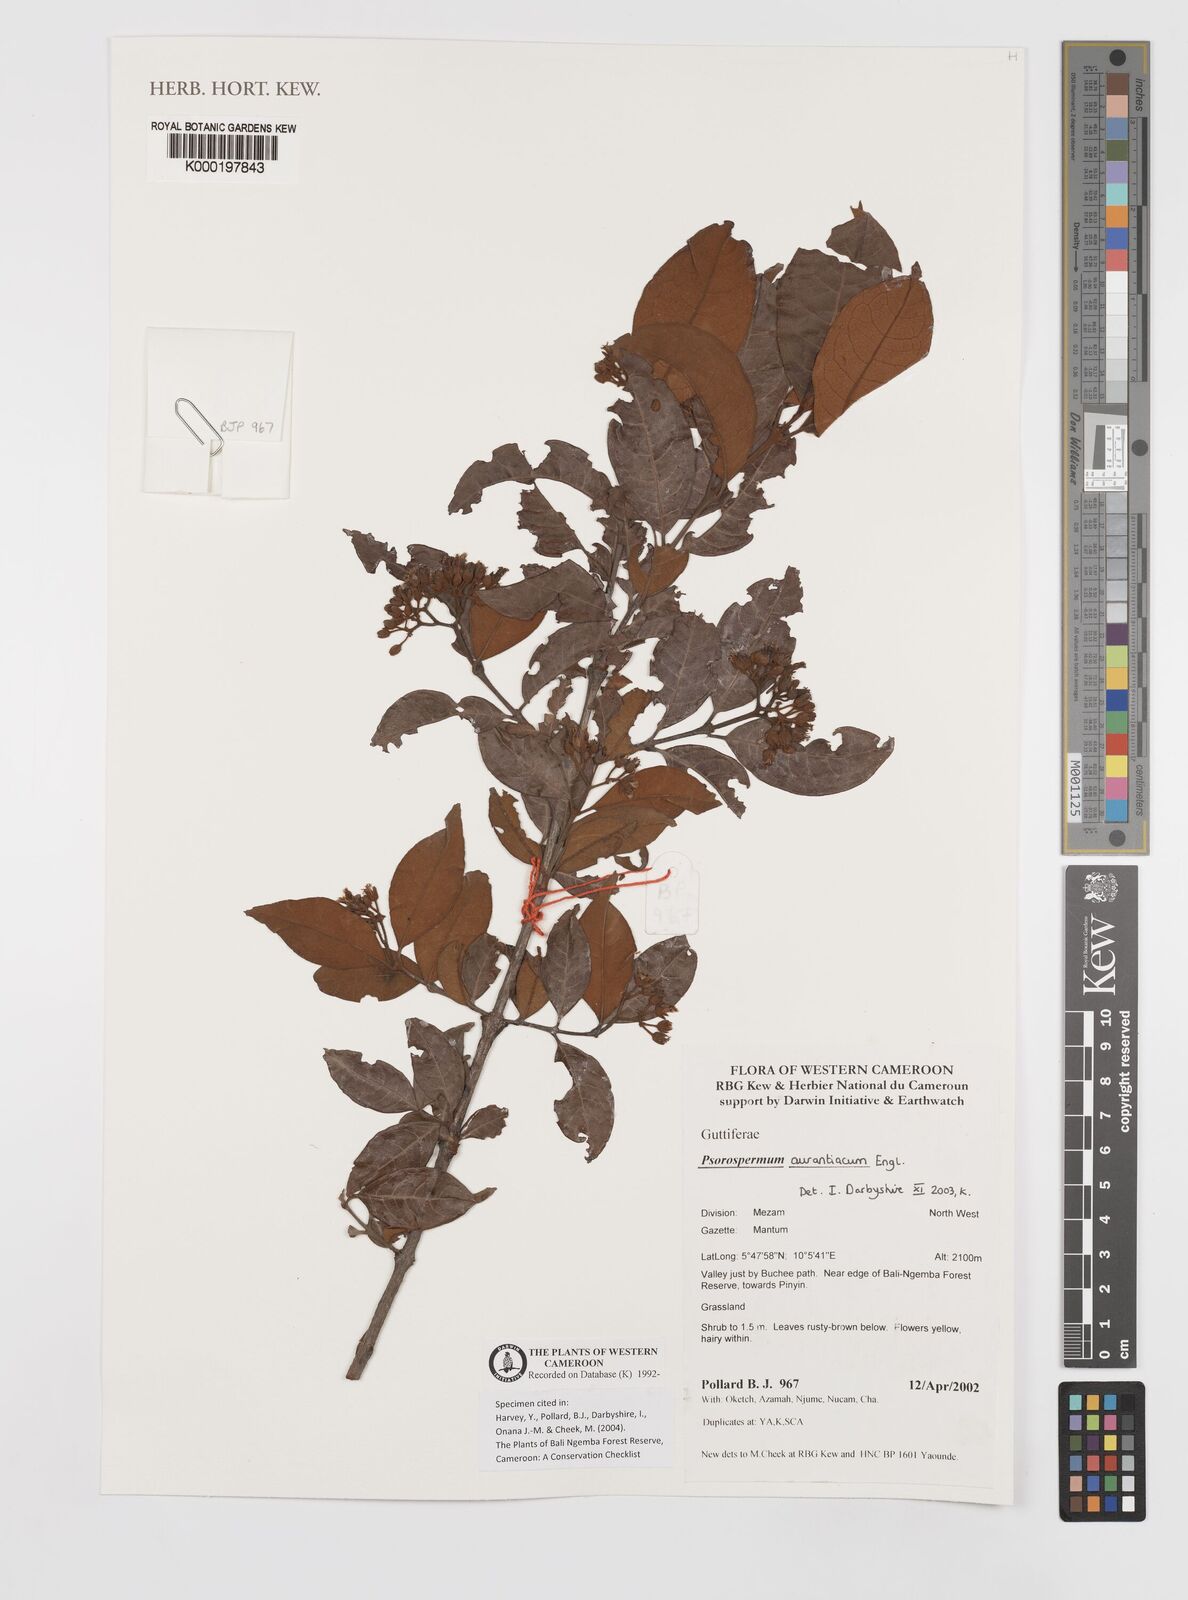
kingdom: Plantae
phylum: Tracheophyta
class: Magnoliopsida
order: Malpighiales
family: Hypericaceae
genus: Psorospermum
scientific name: Psorospermum aurantiacum
